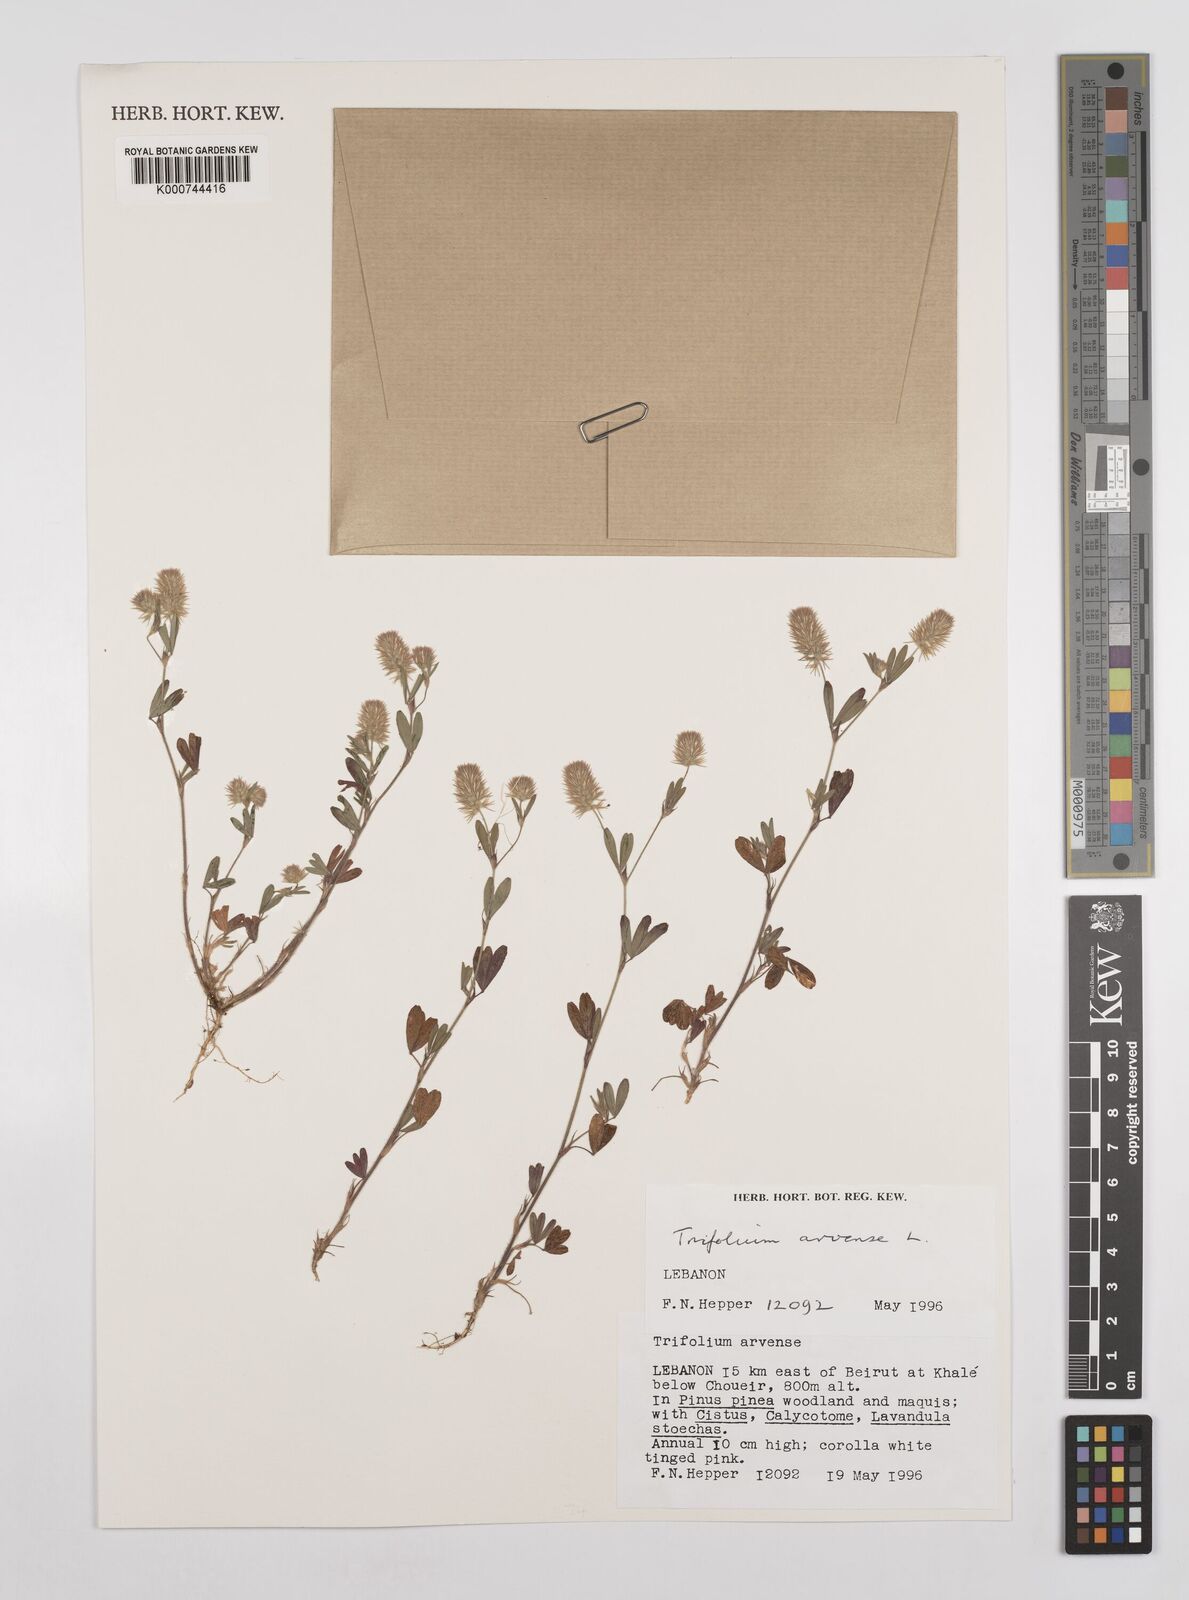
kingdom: Plantae
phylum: Tracheophyta
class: Magnoliopsida
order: Fabales
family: Fabaceae
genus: Trifolium
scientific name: Trifolium arvense
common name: Hare's-foot clover
